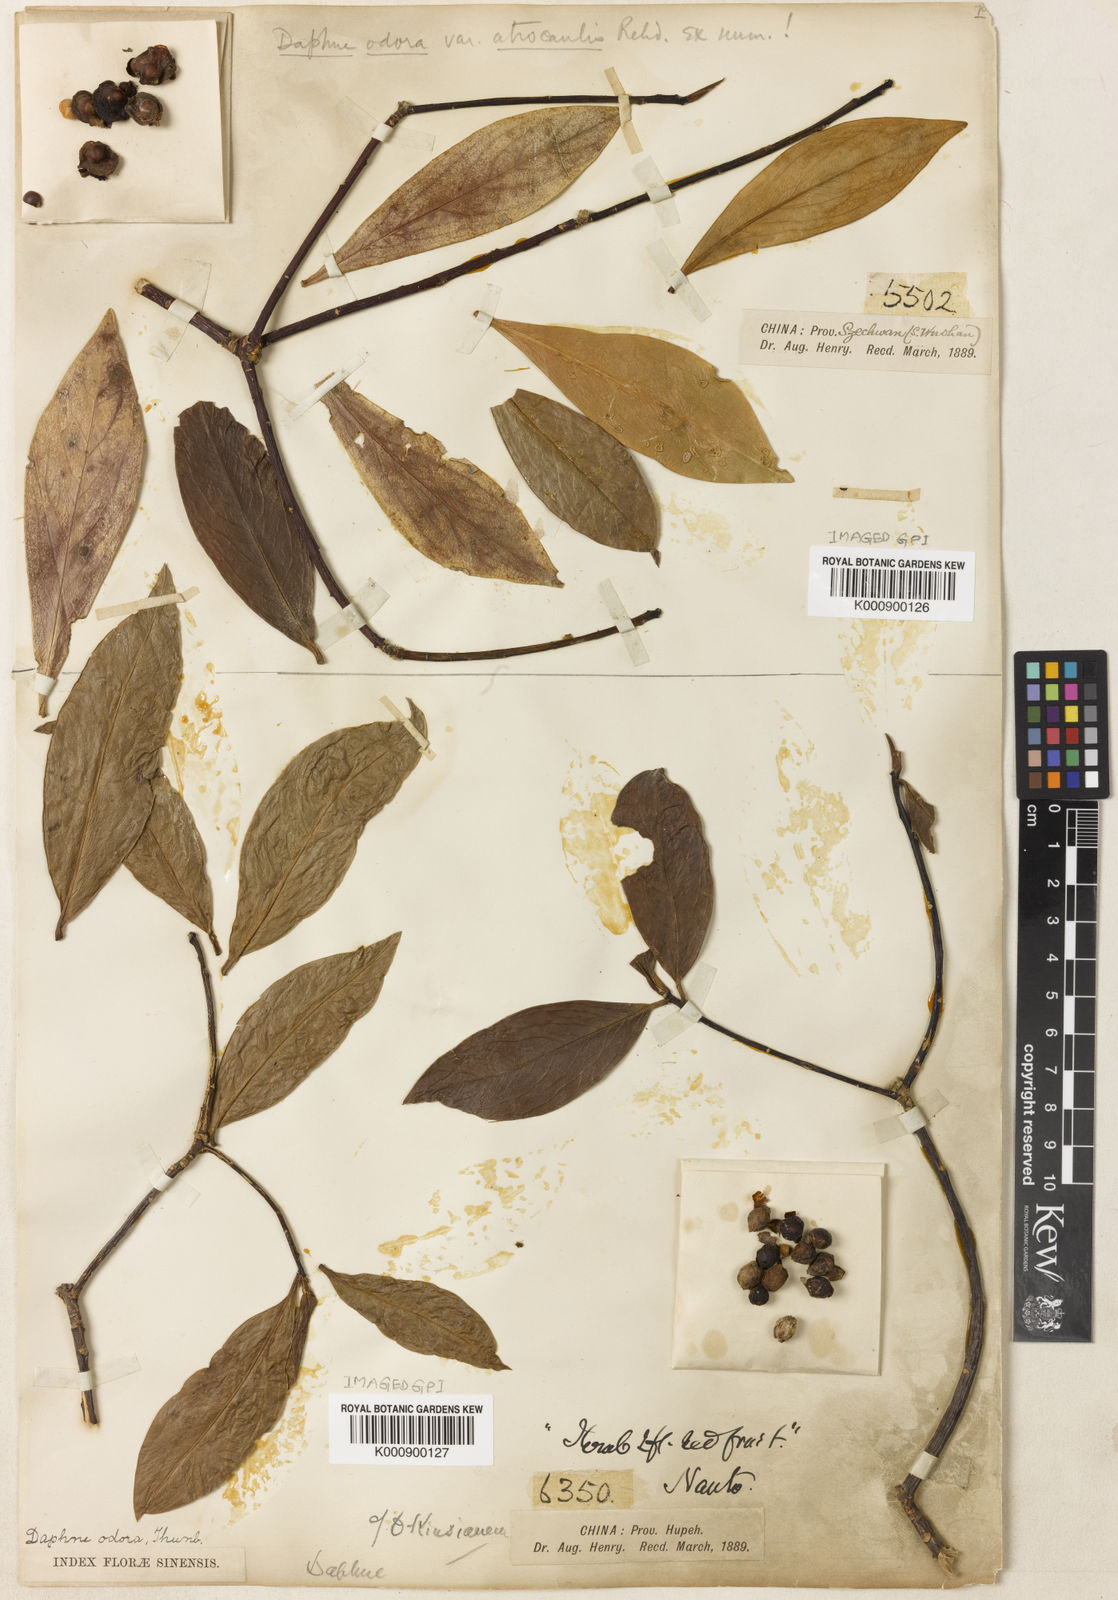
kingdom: Plantae
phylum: Tracheophyta
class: Magnoliopsida
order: Malvales
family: Thymelaeaceae
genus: Daphne
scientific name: Daphne
